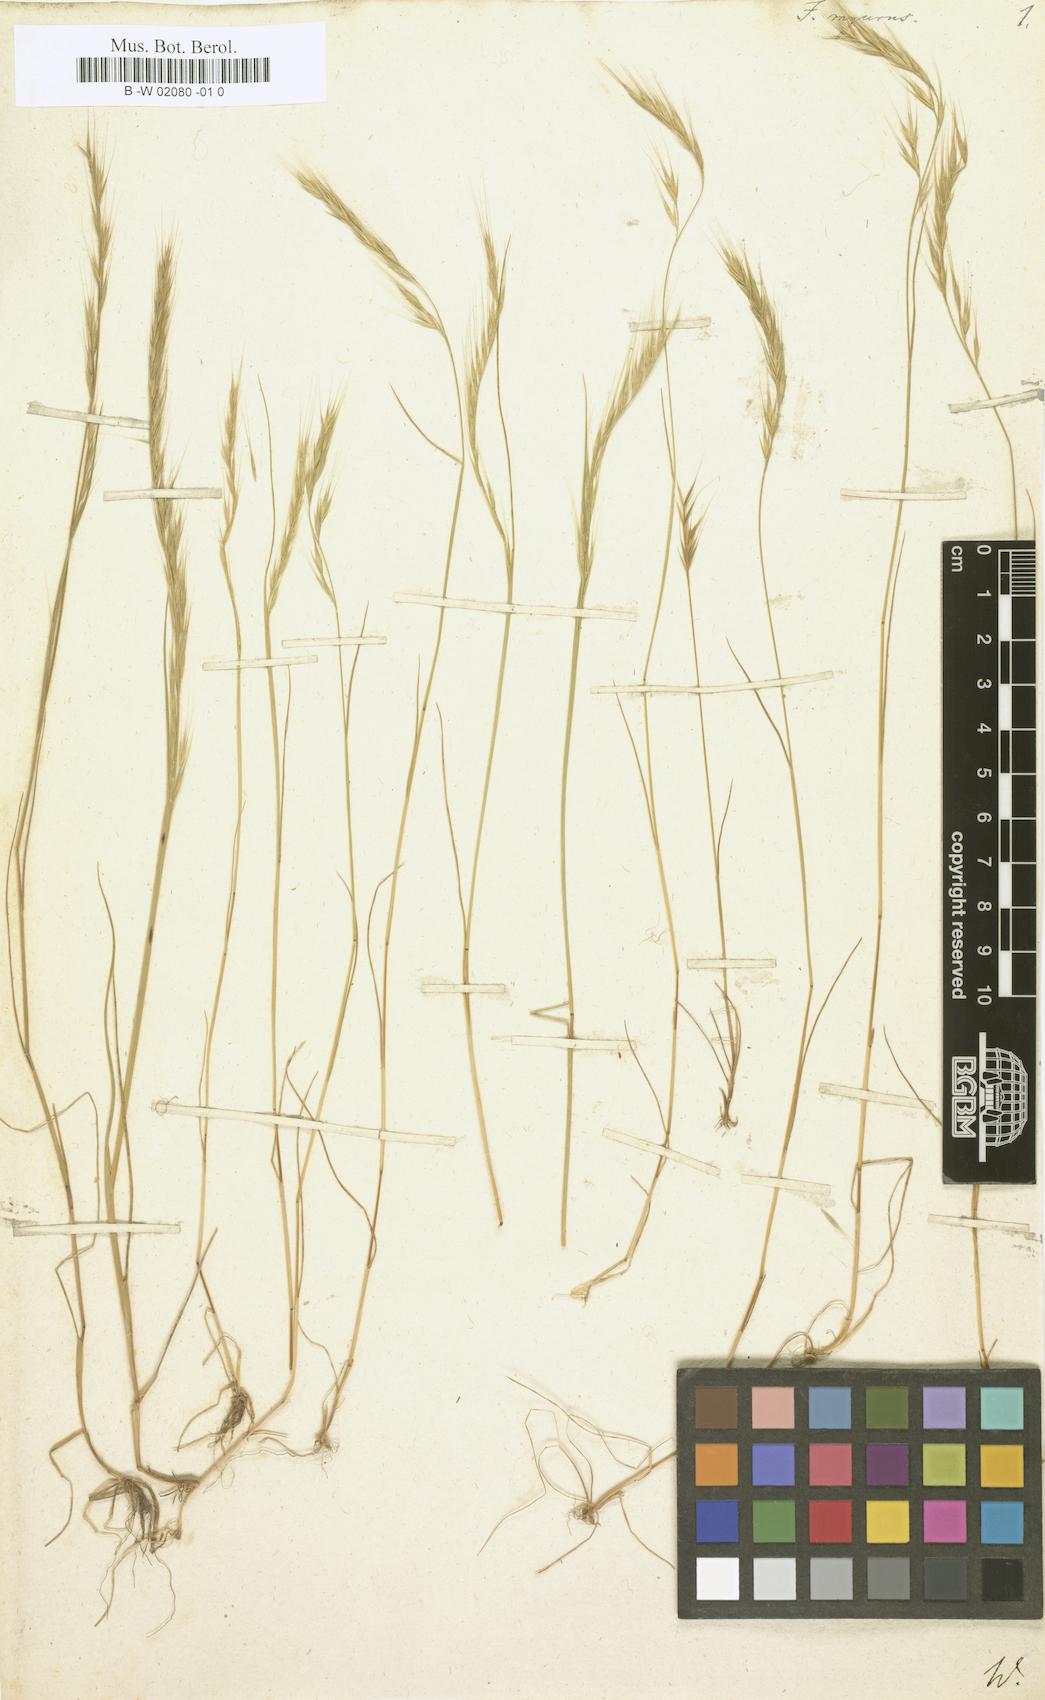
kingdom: Plantae
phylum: Tracheophyta
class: Liliopsida
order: Poales
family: Poaceae
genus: Festuca
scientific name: Festuca myurus
